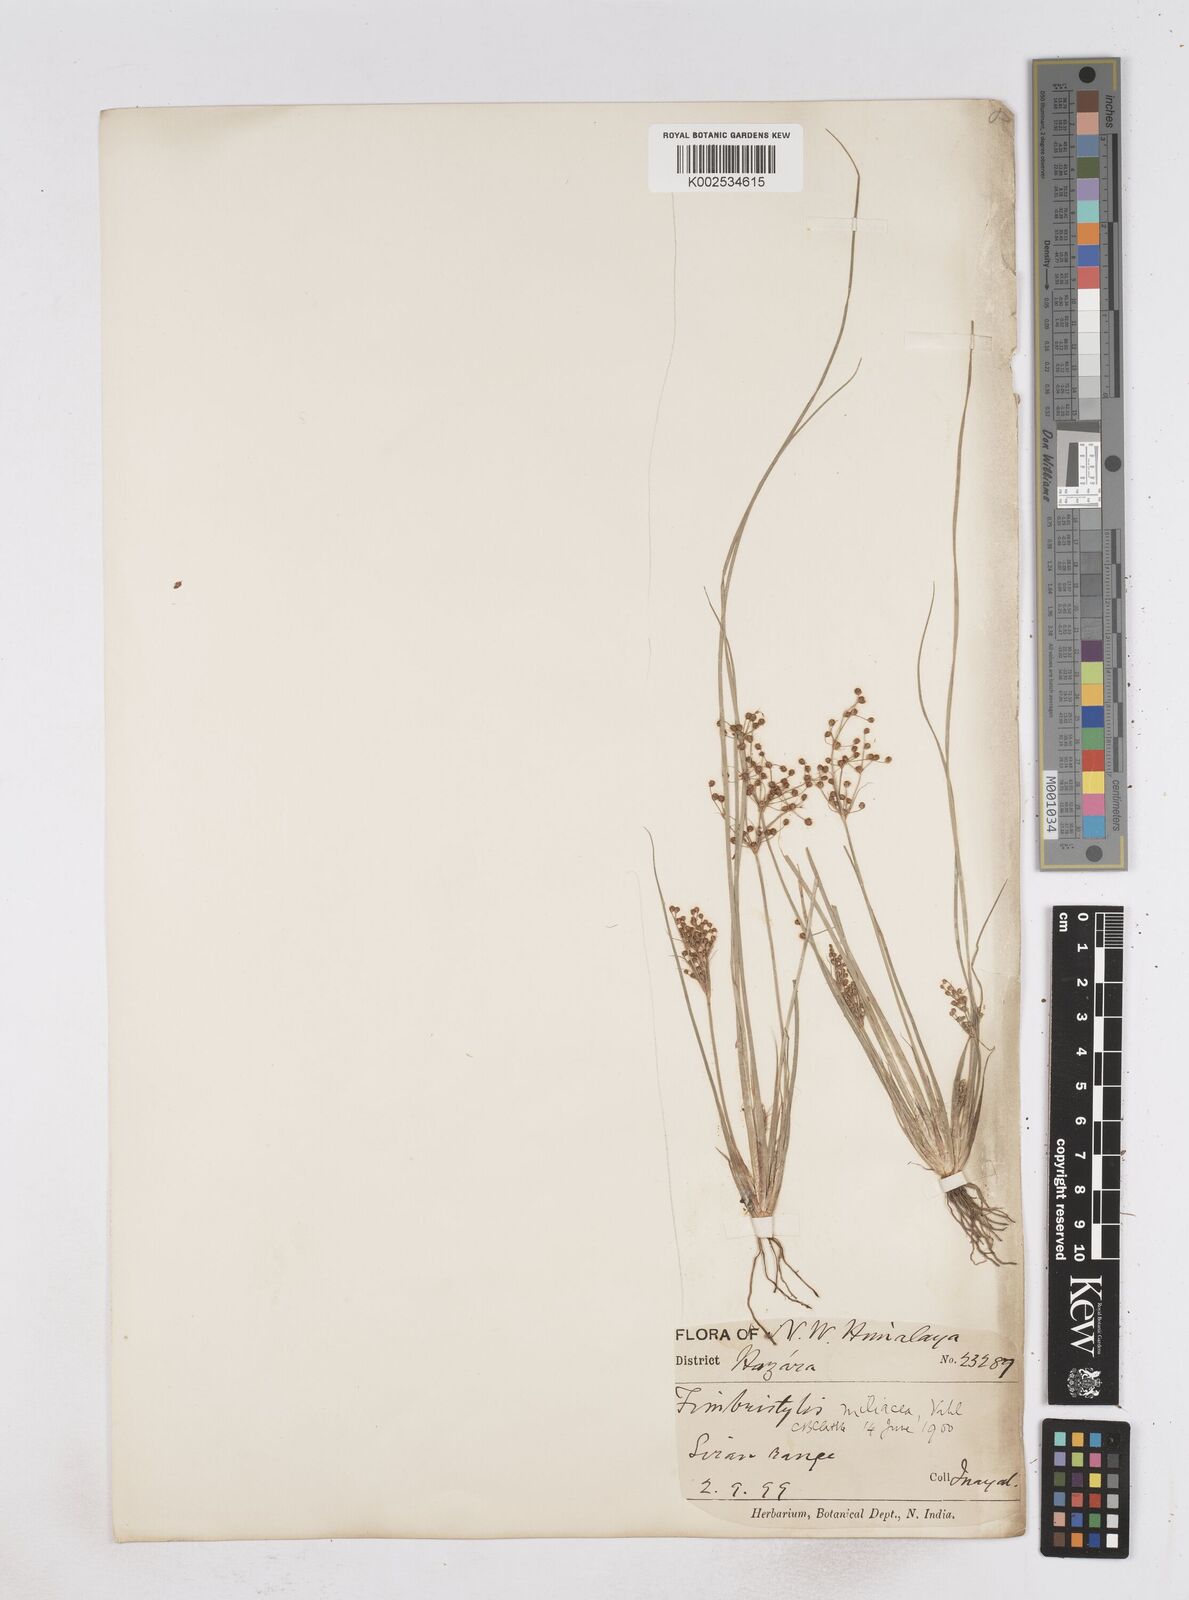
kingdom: Plantae
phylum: Tracheophyta
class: Liliopsida
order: Poales
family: Cyperaceae
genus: Fimbristylis
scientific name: Fimbristylis littoralis
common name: Fimbry
